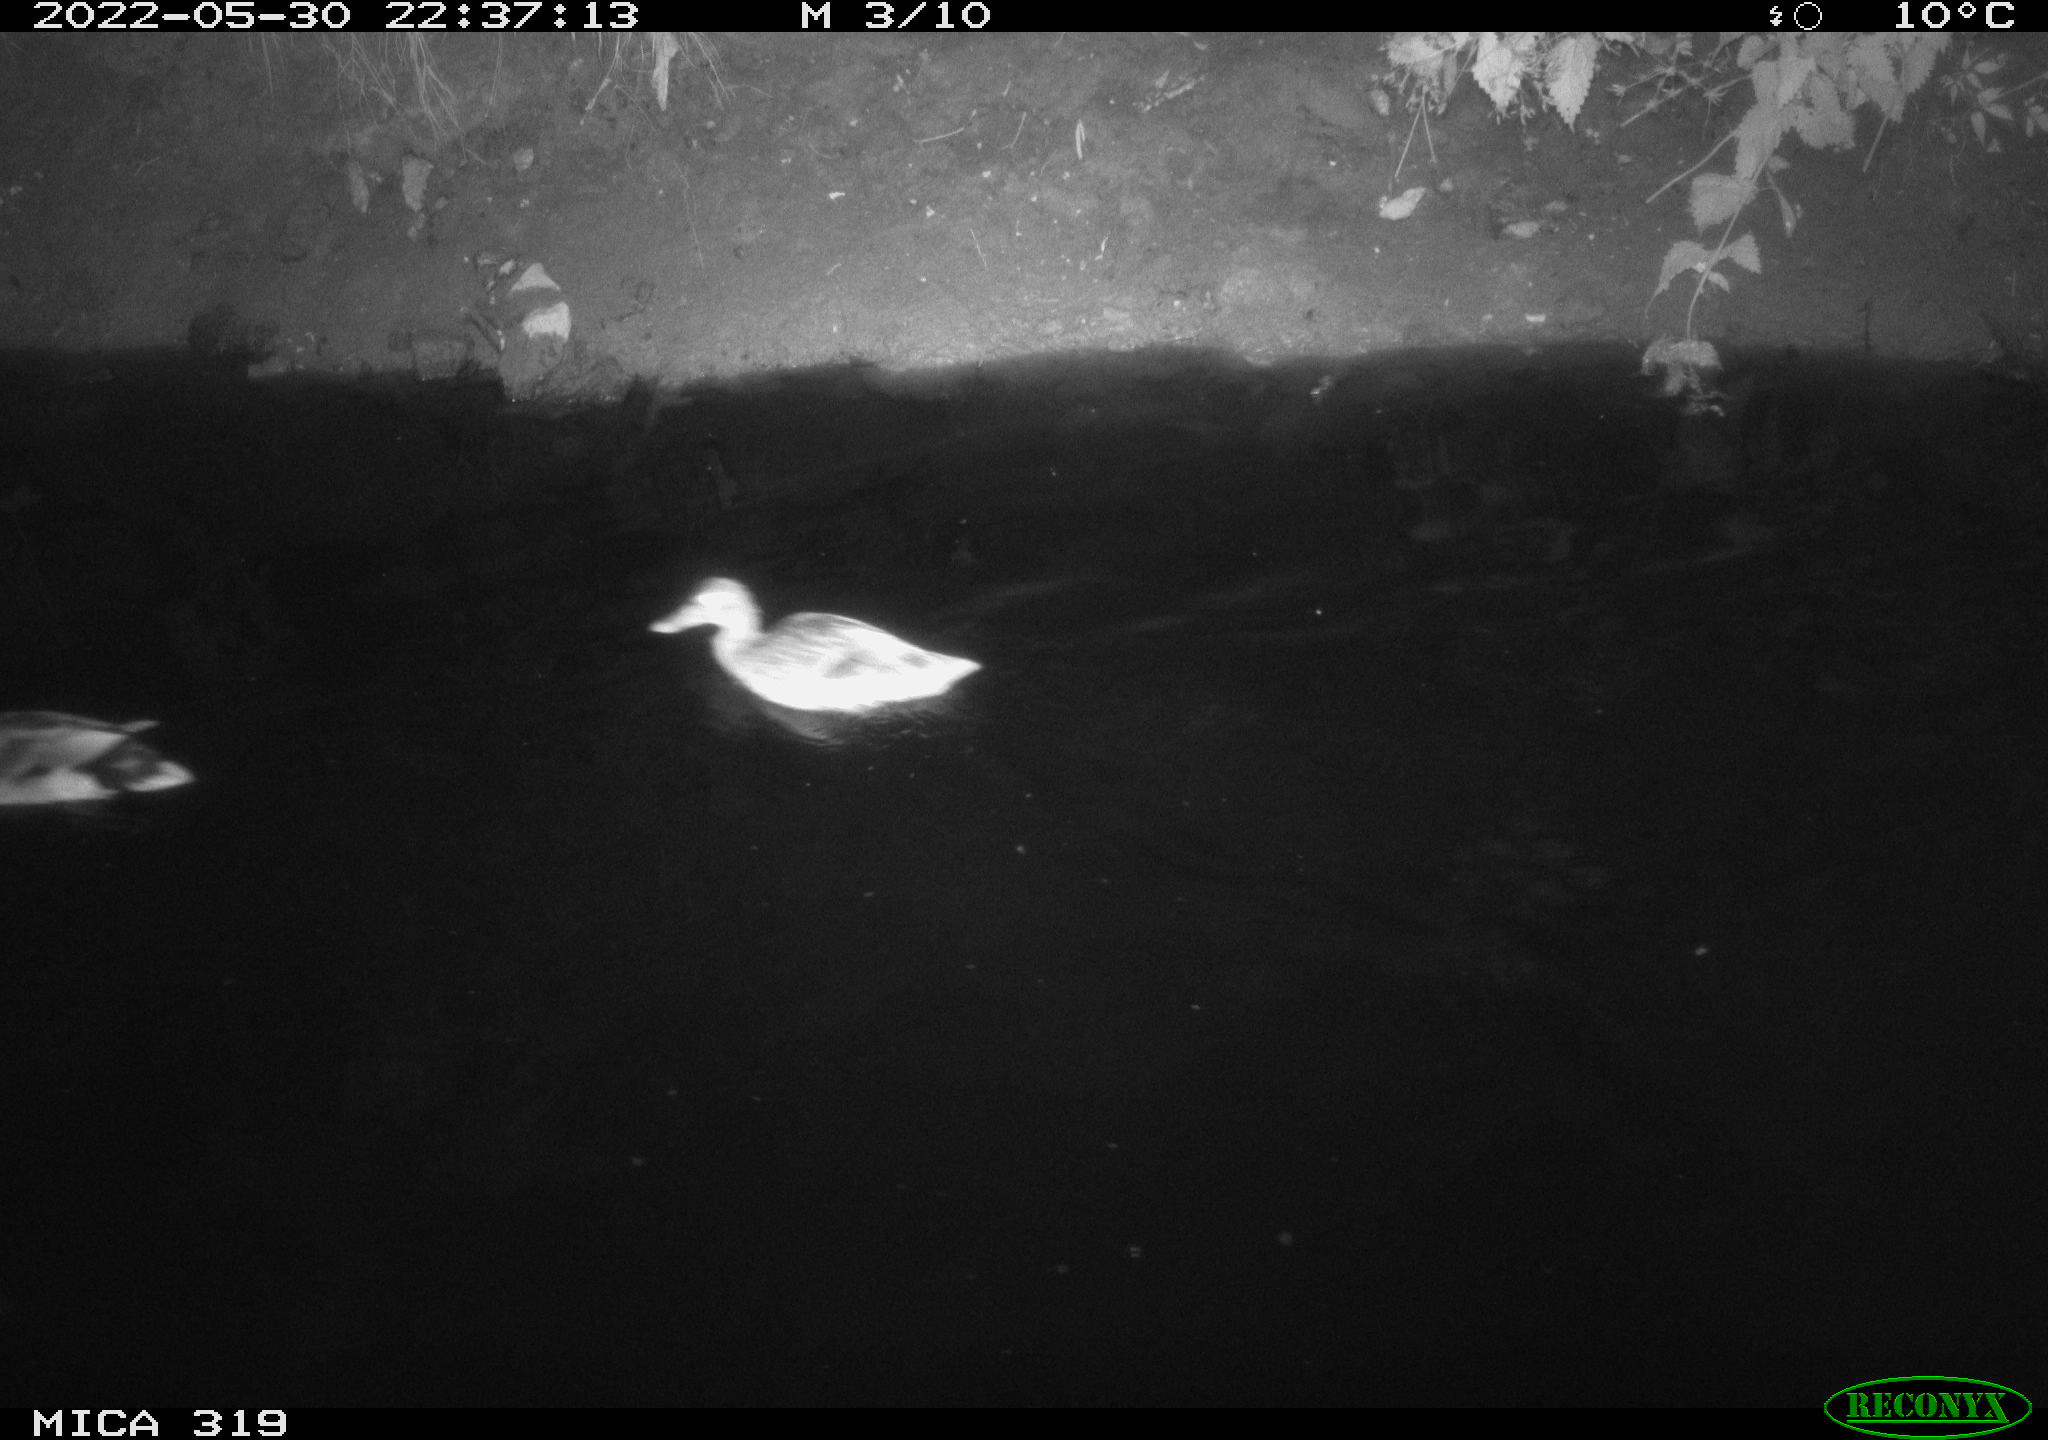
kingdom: Animalia
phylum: Chordata
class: Aves
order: Anseriformes
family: Anatidae
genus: Anas
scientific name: Anas
